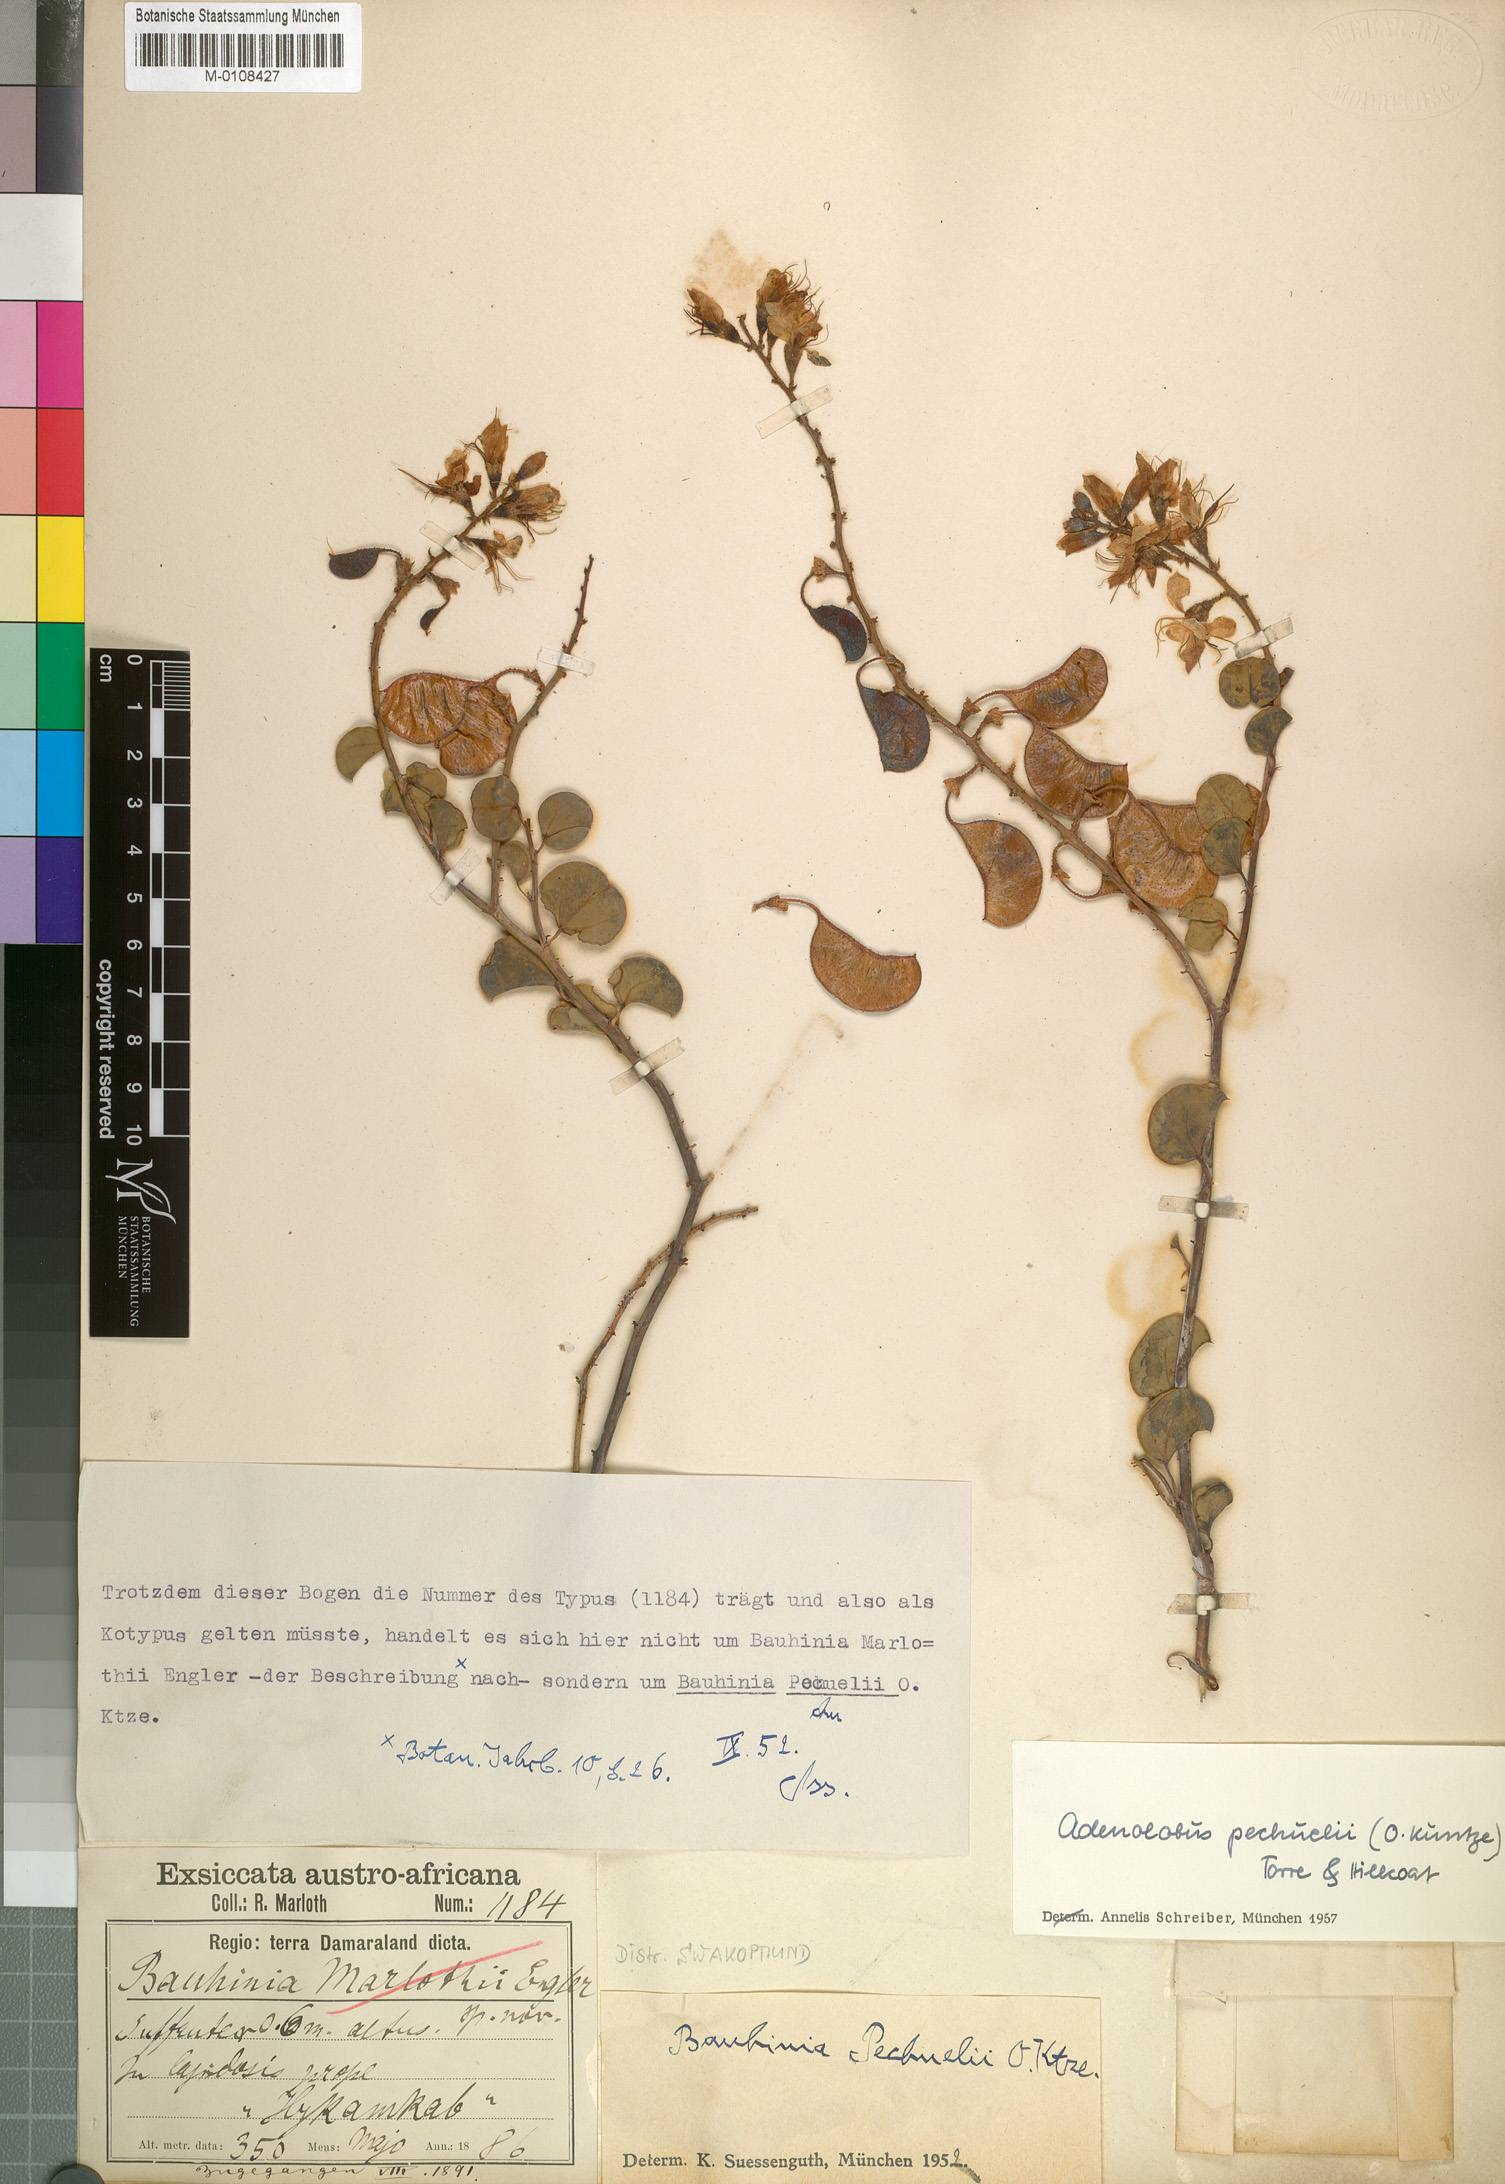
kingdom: Plantae
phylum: Tracheophyta
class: Magnoliopsida
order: Fabales
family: Fabaceae
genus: Adenolobus
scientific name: Adenolobus pechuelii
